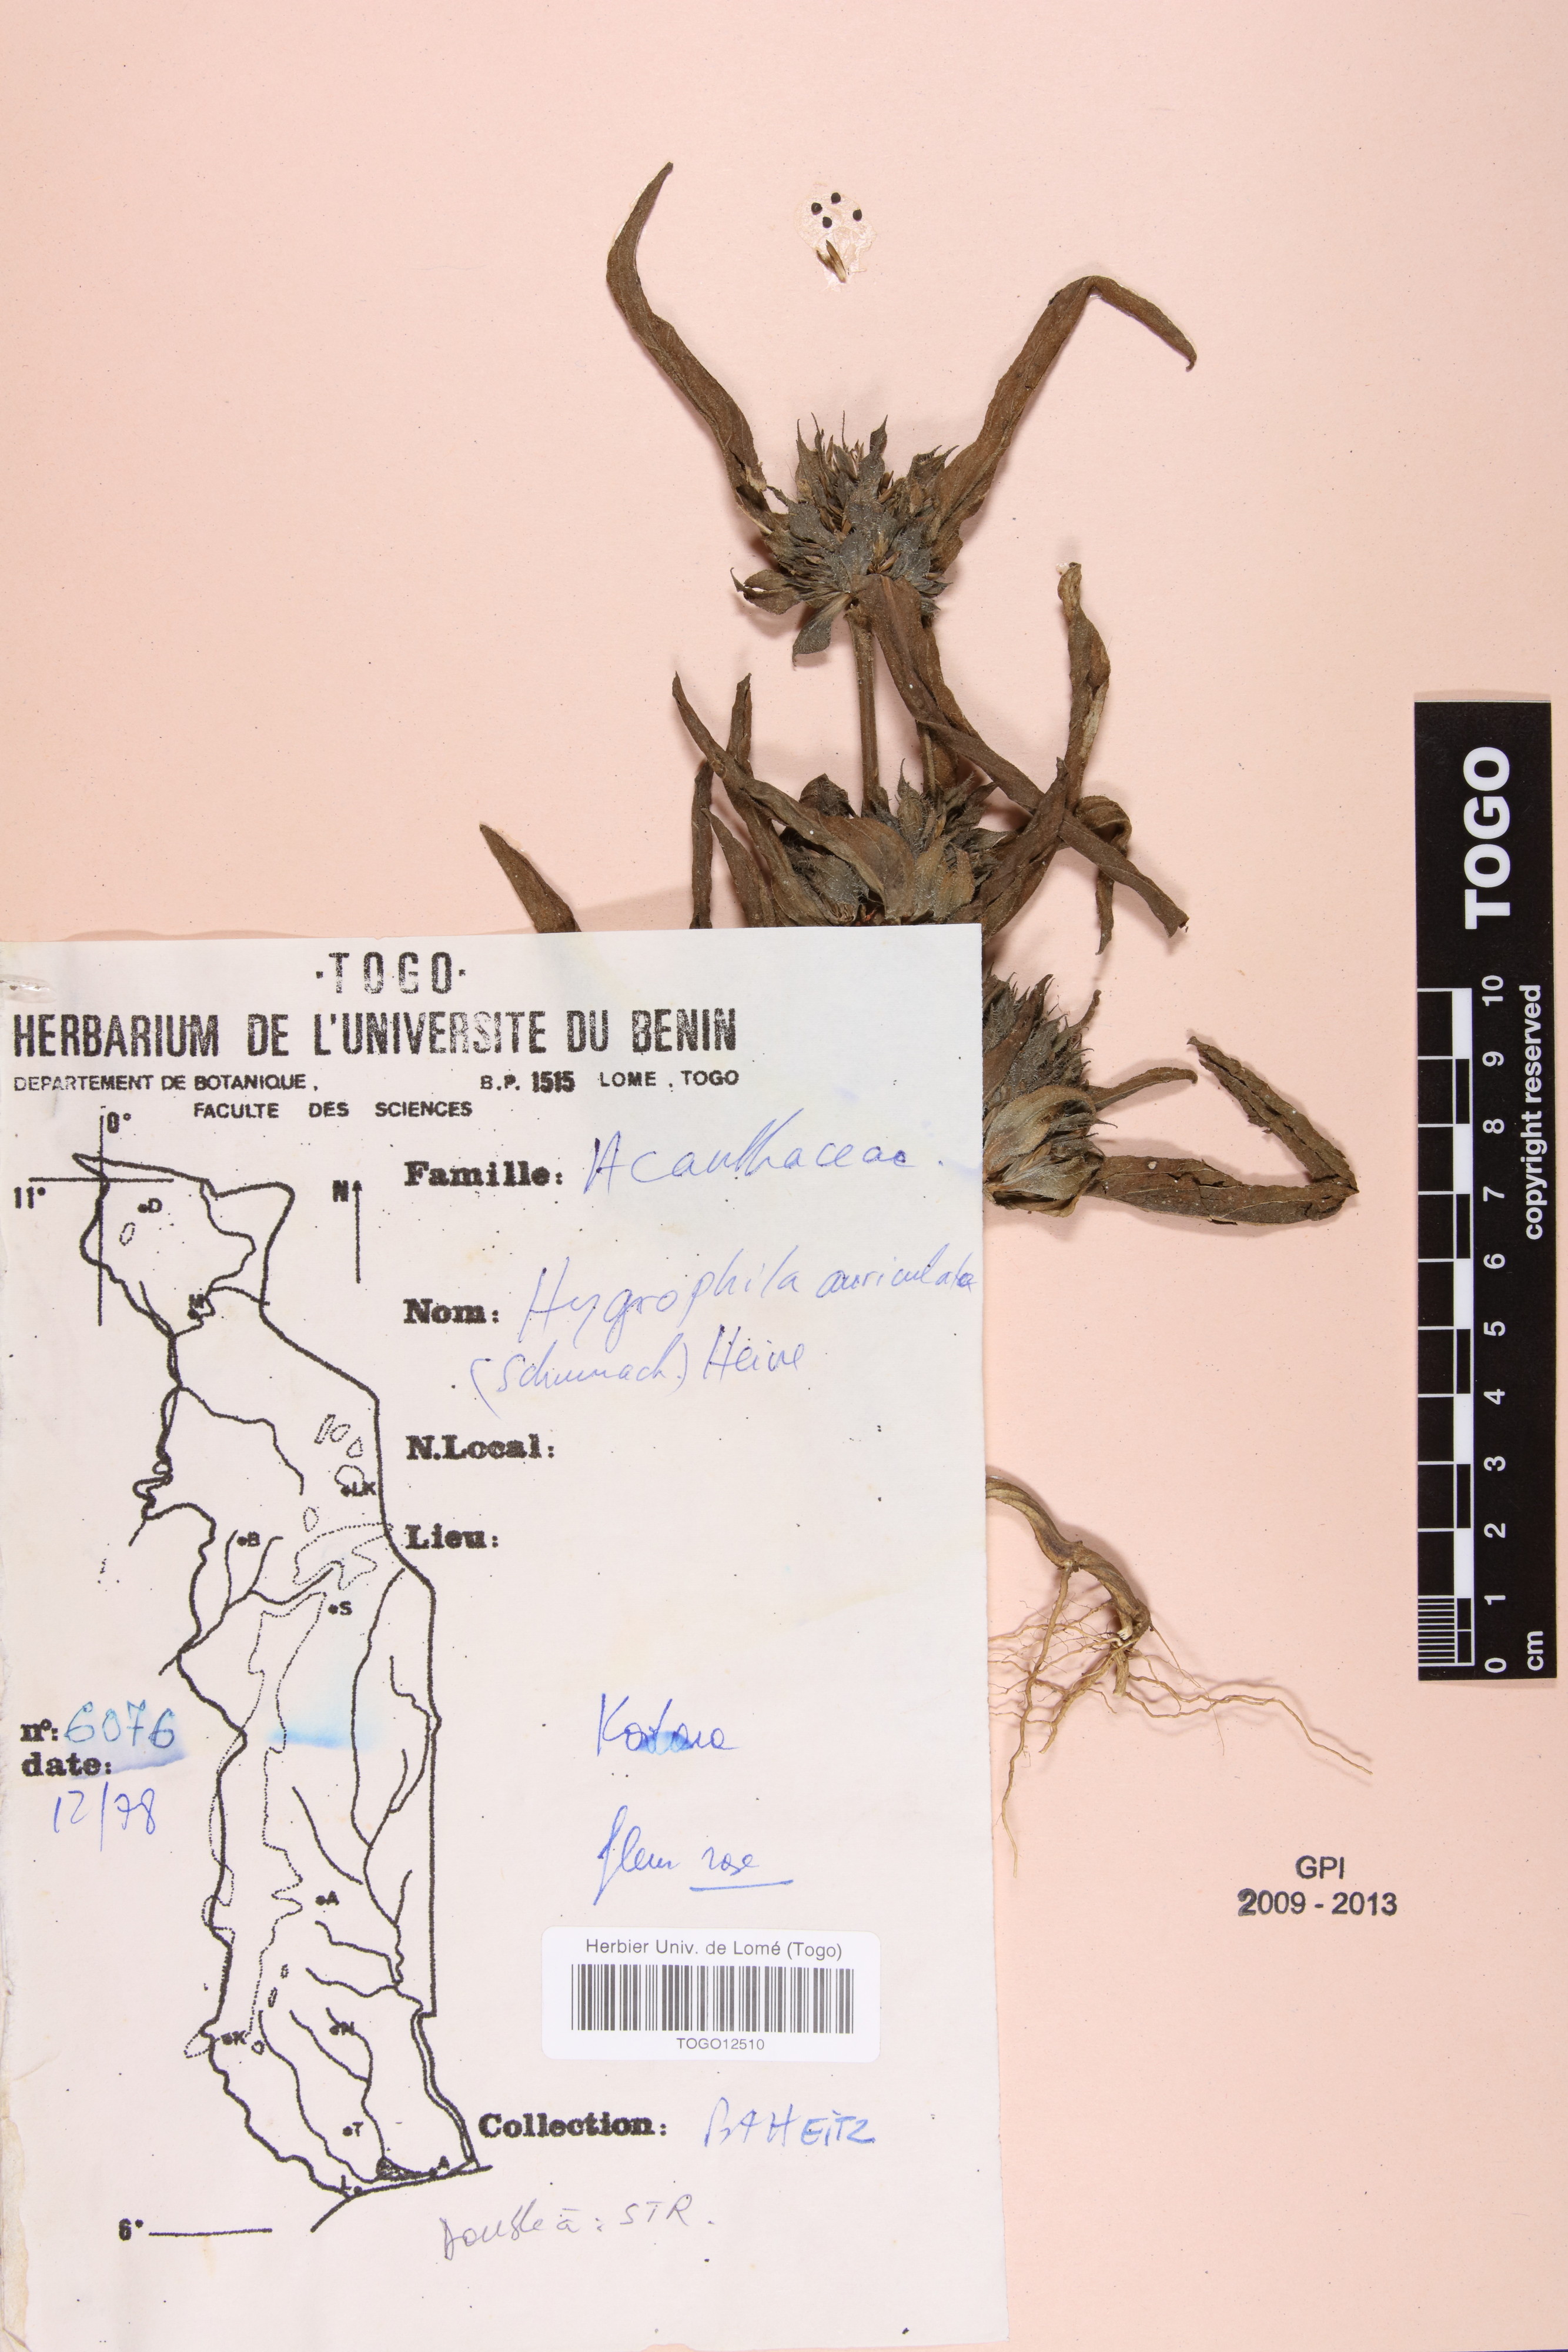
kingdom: Plantae
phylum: Tracheophyta
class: Magnoliopsida
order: Lamiales
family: Acanthaceae
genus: Hygrophila
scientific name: Hygrophila auriculata
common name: Hygrophila
